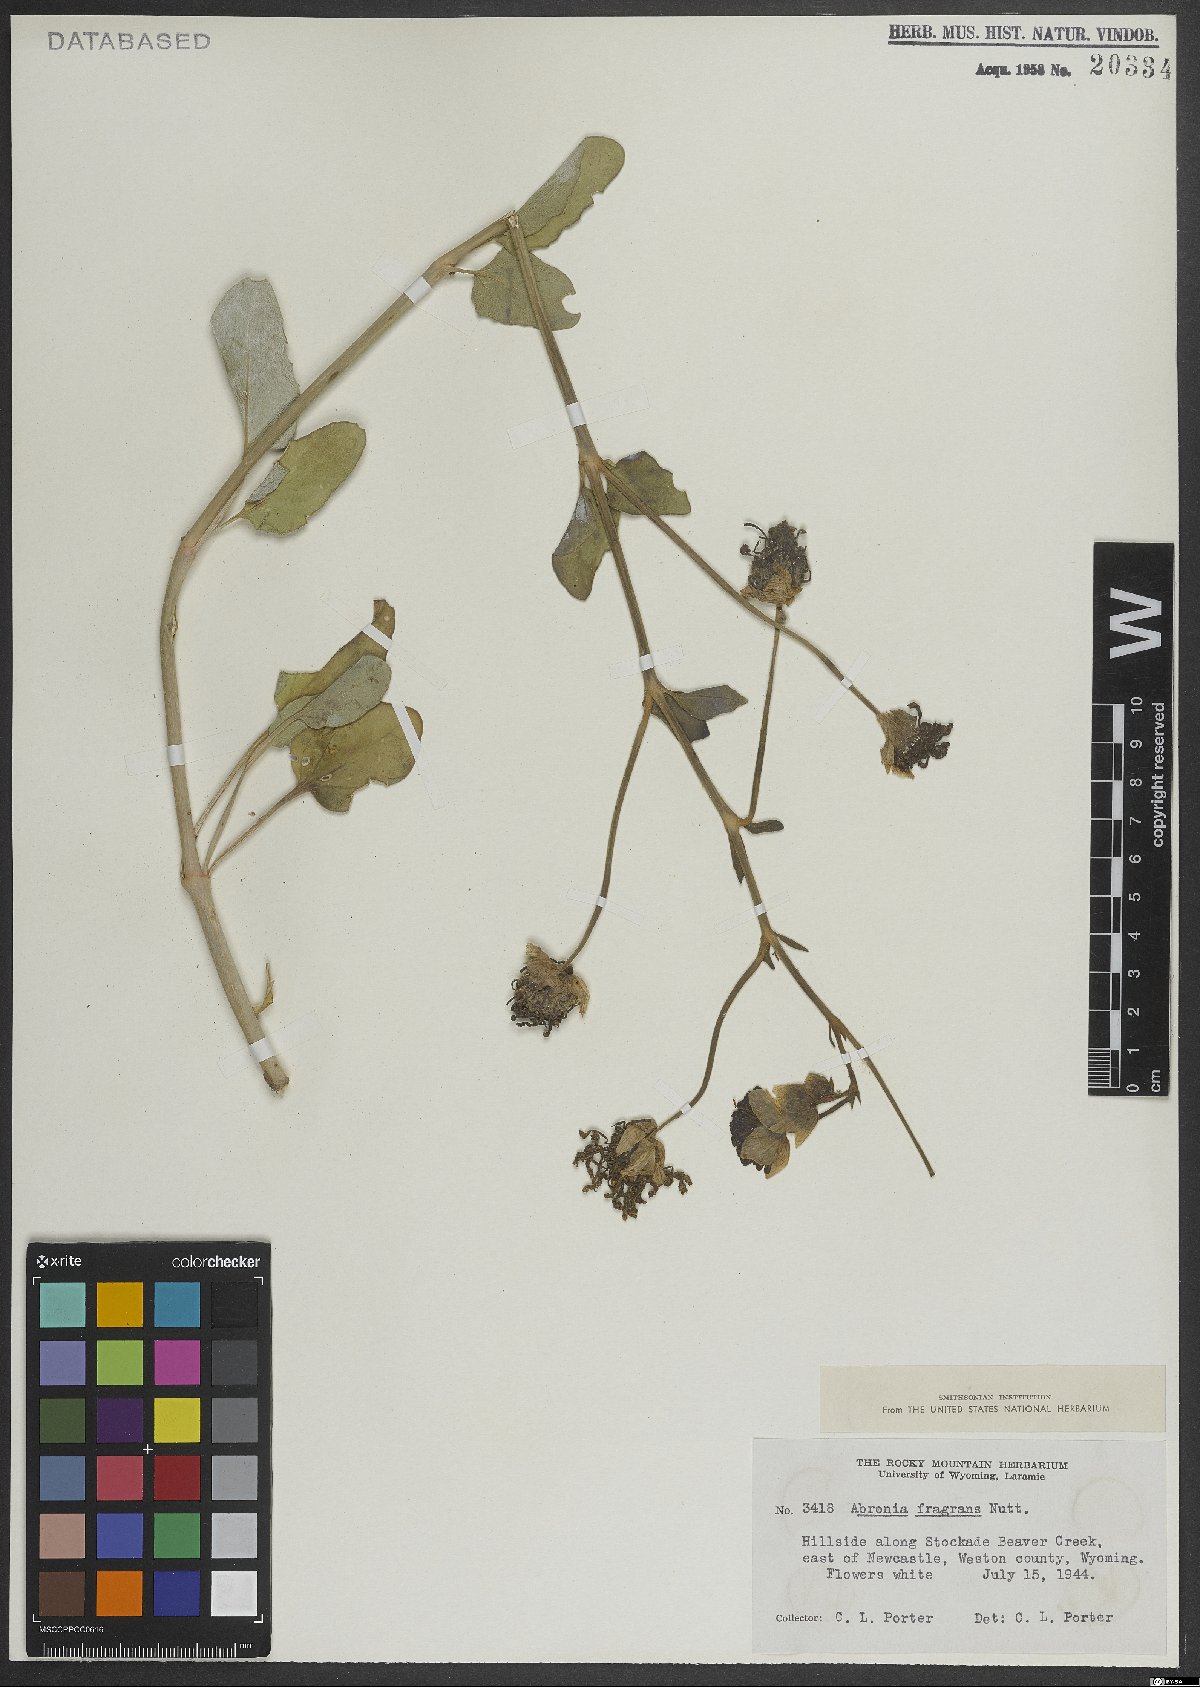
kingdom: Plantae
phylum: Tracheophyta
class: Magnoliopsida
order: Caryophyllales
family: Nyctaginaceae
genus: Abronia
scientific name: Abronia fragrans
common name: Fragrant sand-verbena
